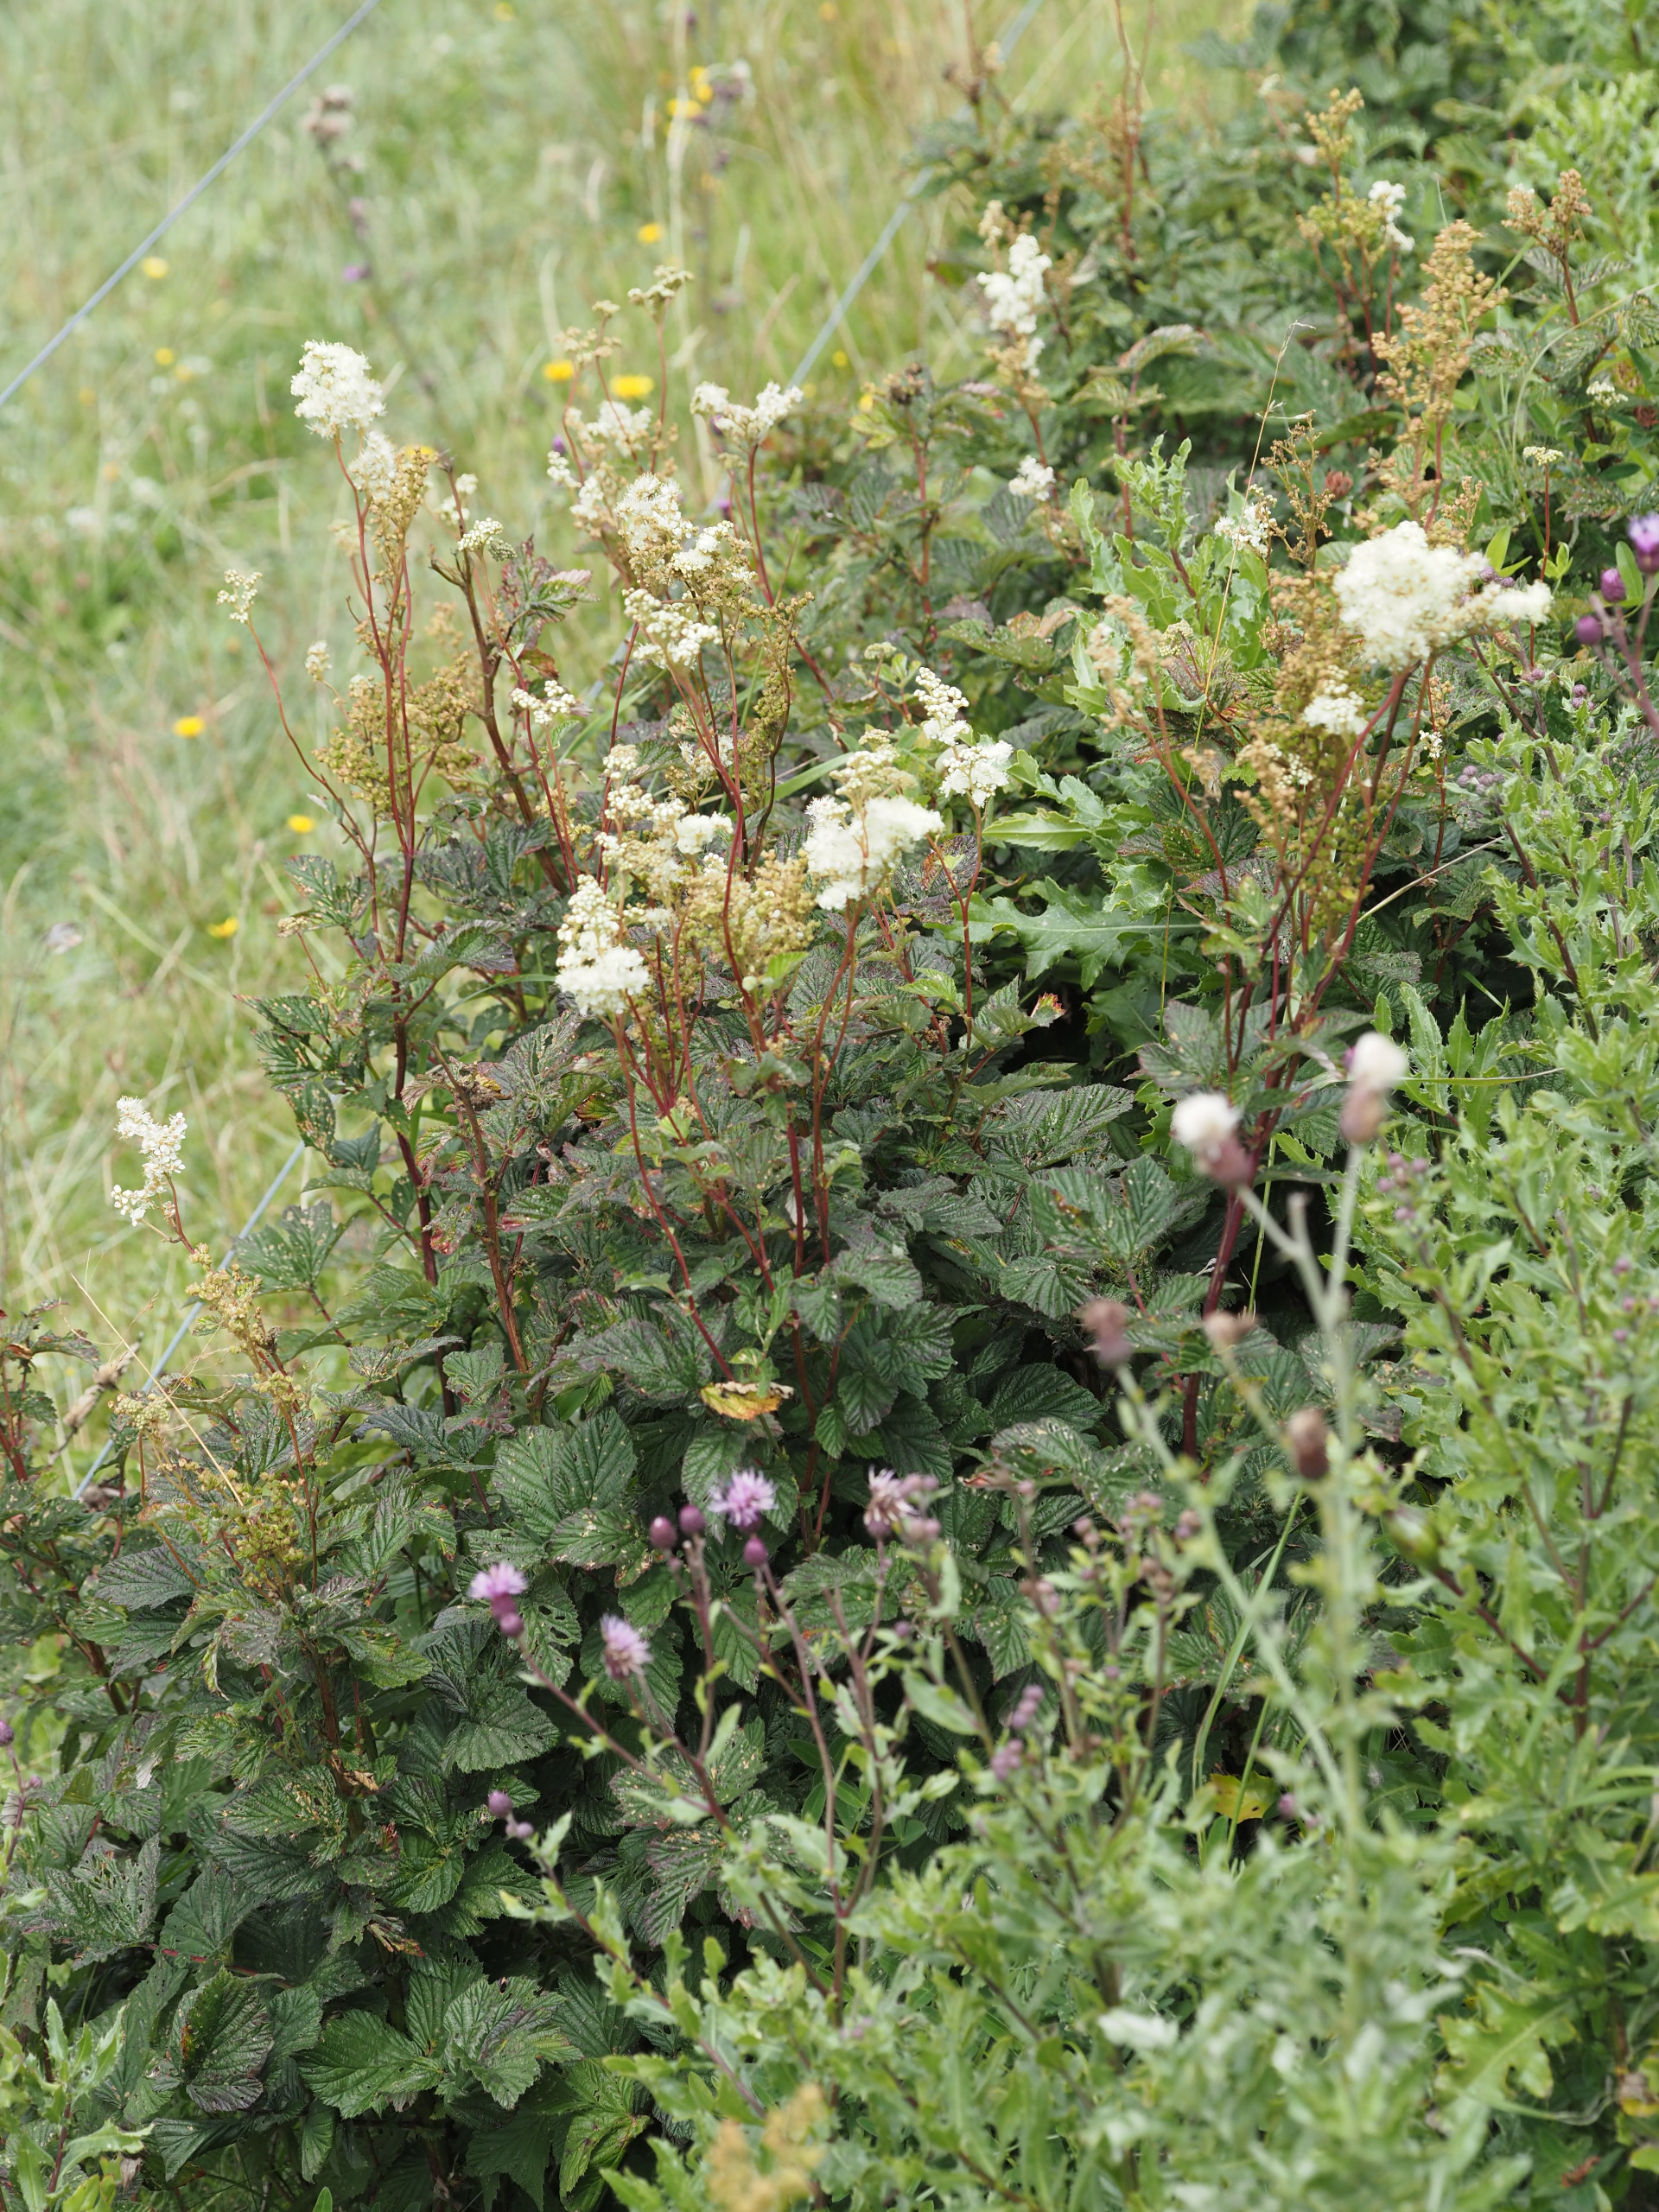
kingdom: Plantae
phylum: Tracheophyta
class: Magnoliopsida
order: Rosales
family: Rosaceae
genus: Filipendula
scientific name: Filipendula ulmaria
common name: Almindelig mjødurt
